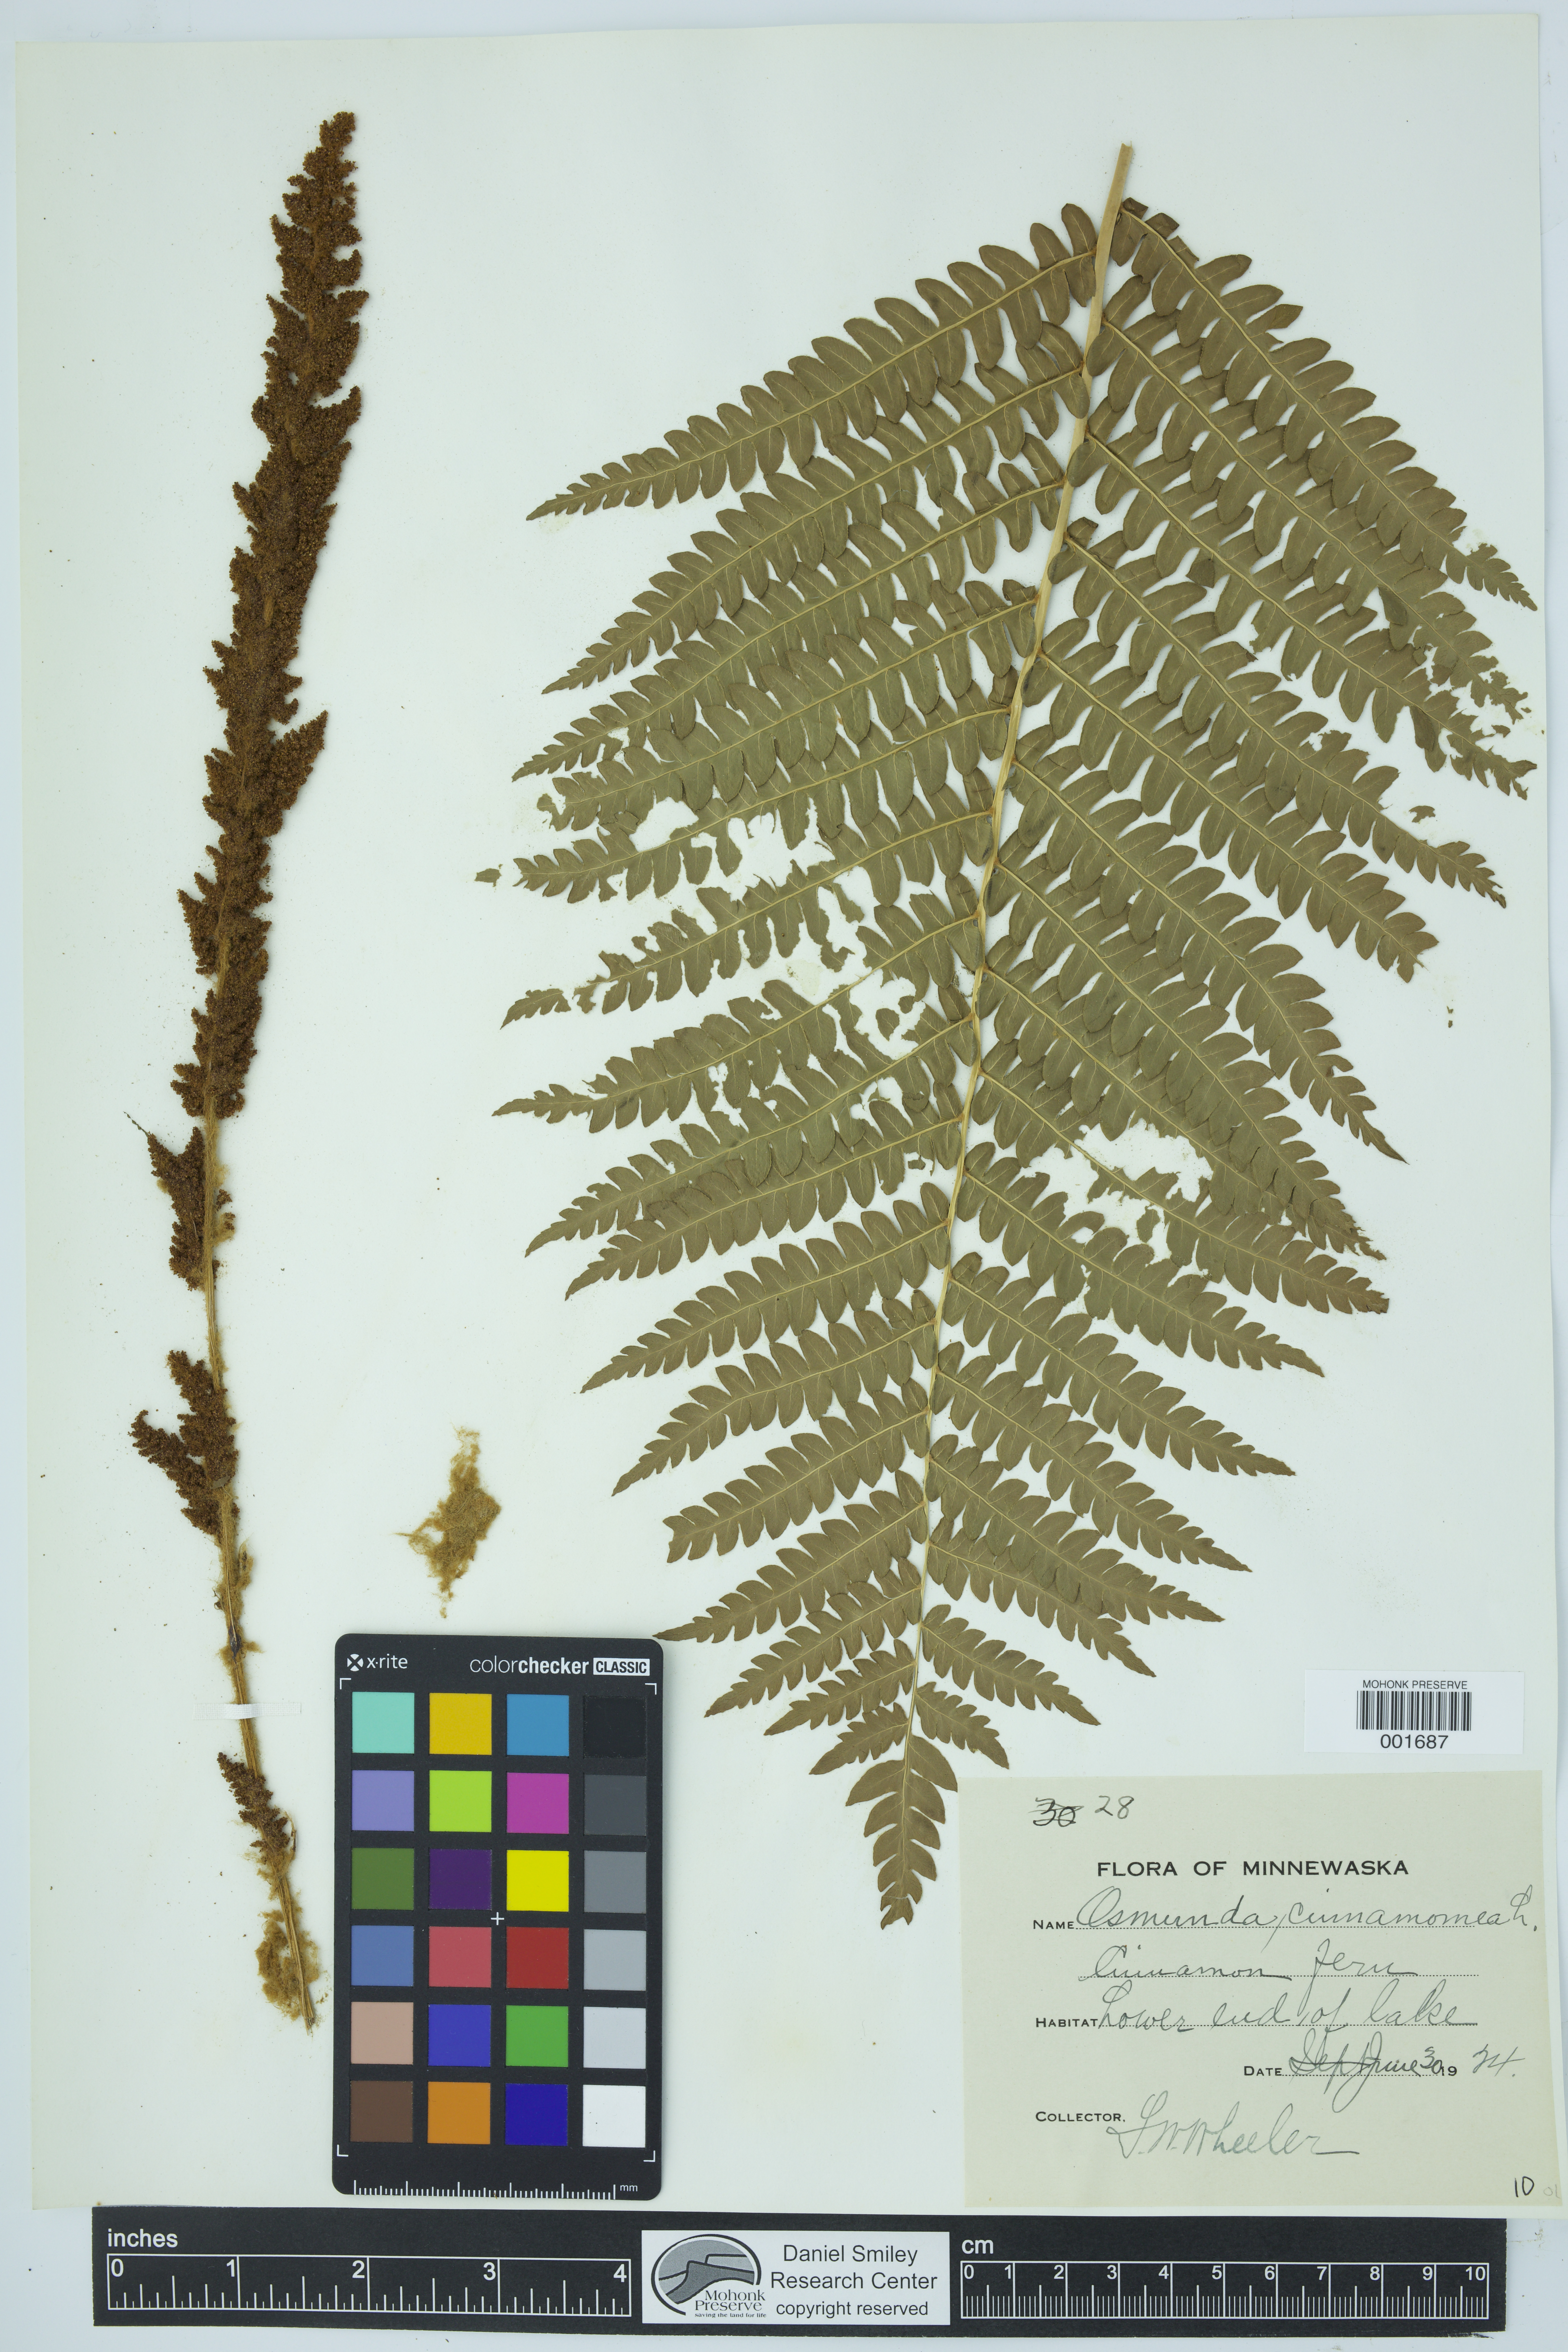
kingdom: Plantae
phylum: Tracheophyta
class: Polypodiopsida
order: Osmundales
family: Osmundaceae
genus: Osmundastrum
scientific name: Osmundastrum cinnamomeum
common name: Cinnamon fern
